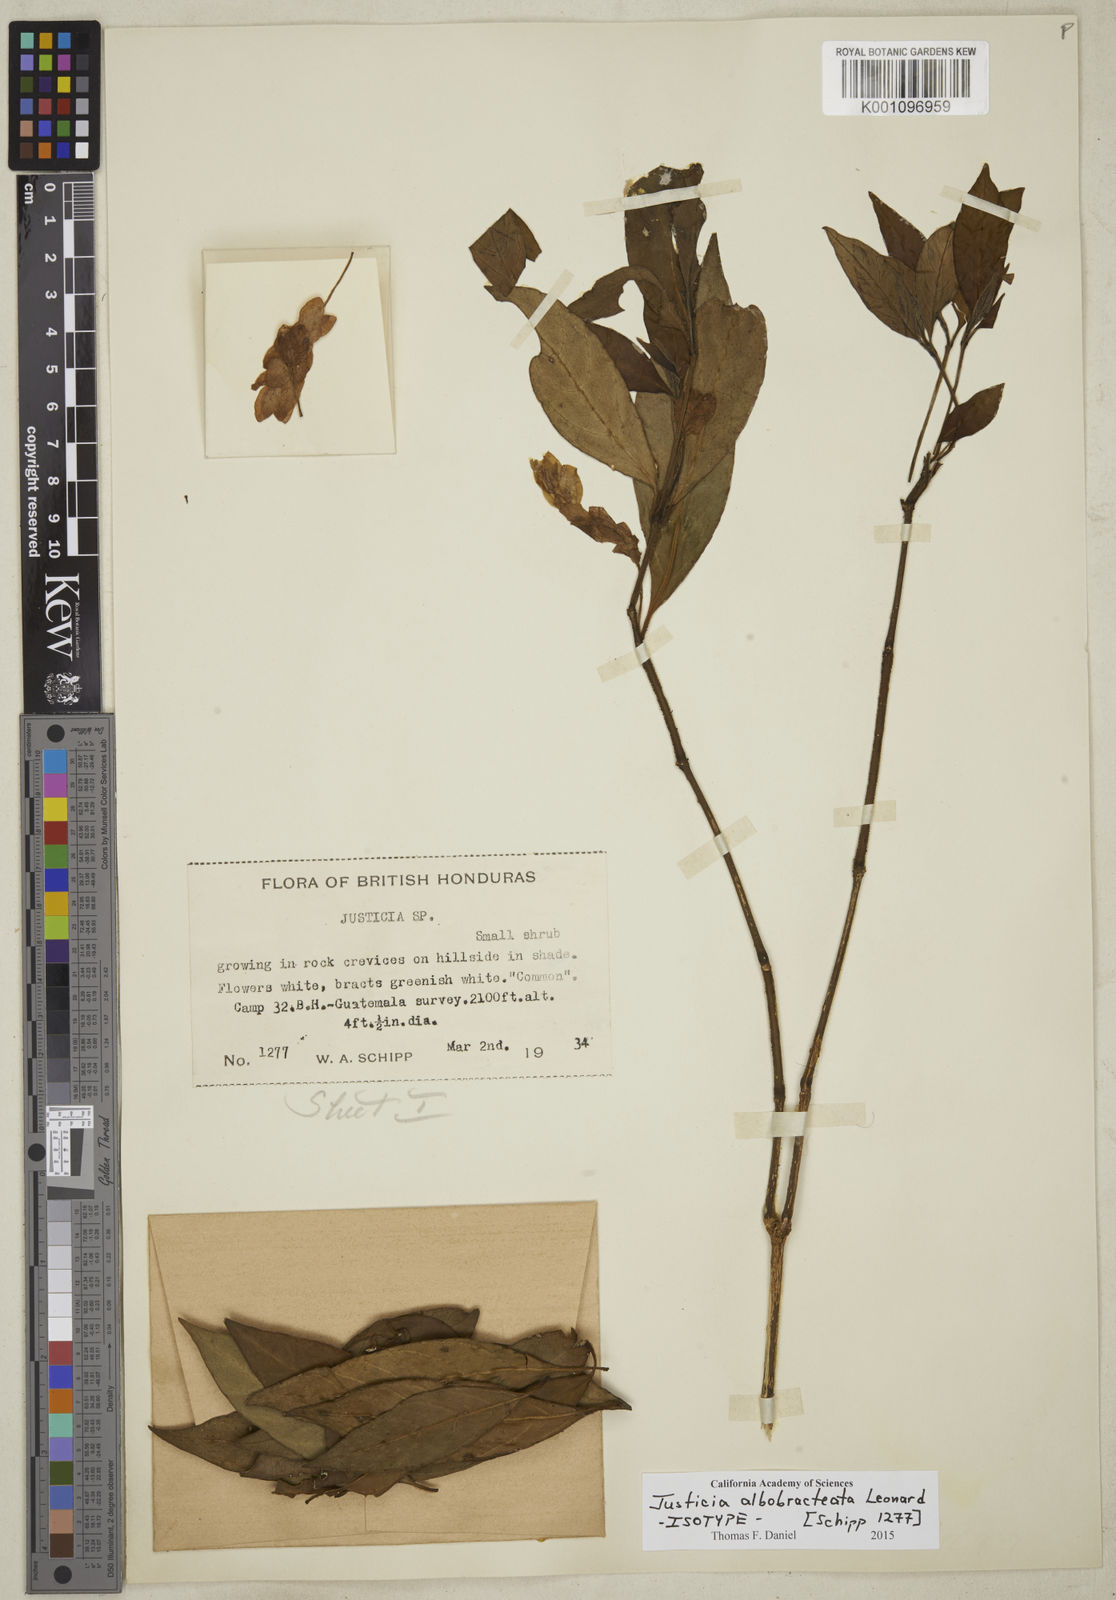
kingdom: Plantae
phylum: Tracheophyta
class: Magnoliopsida
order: Lamiales
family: Acanthaceae
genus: Justicia
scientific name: Justicia albobractea
